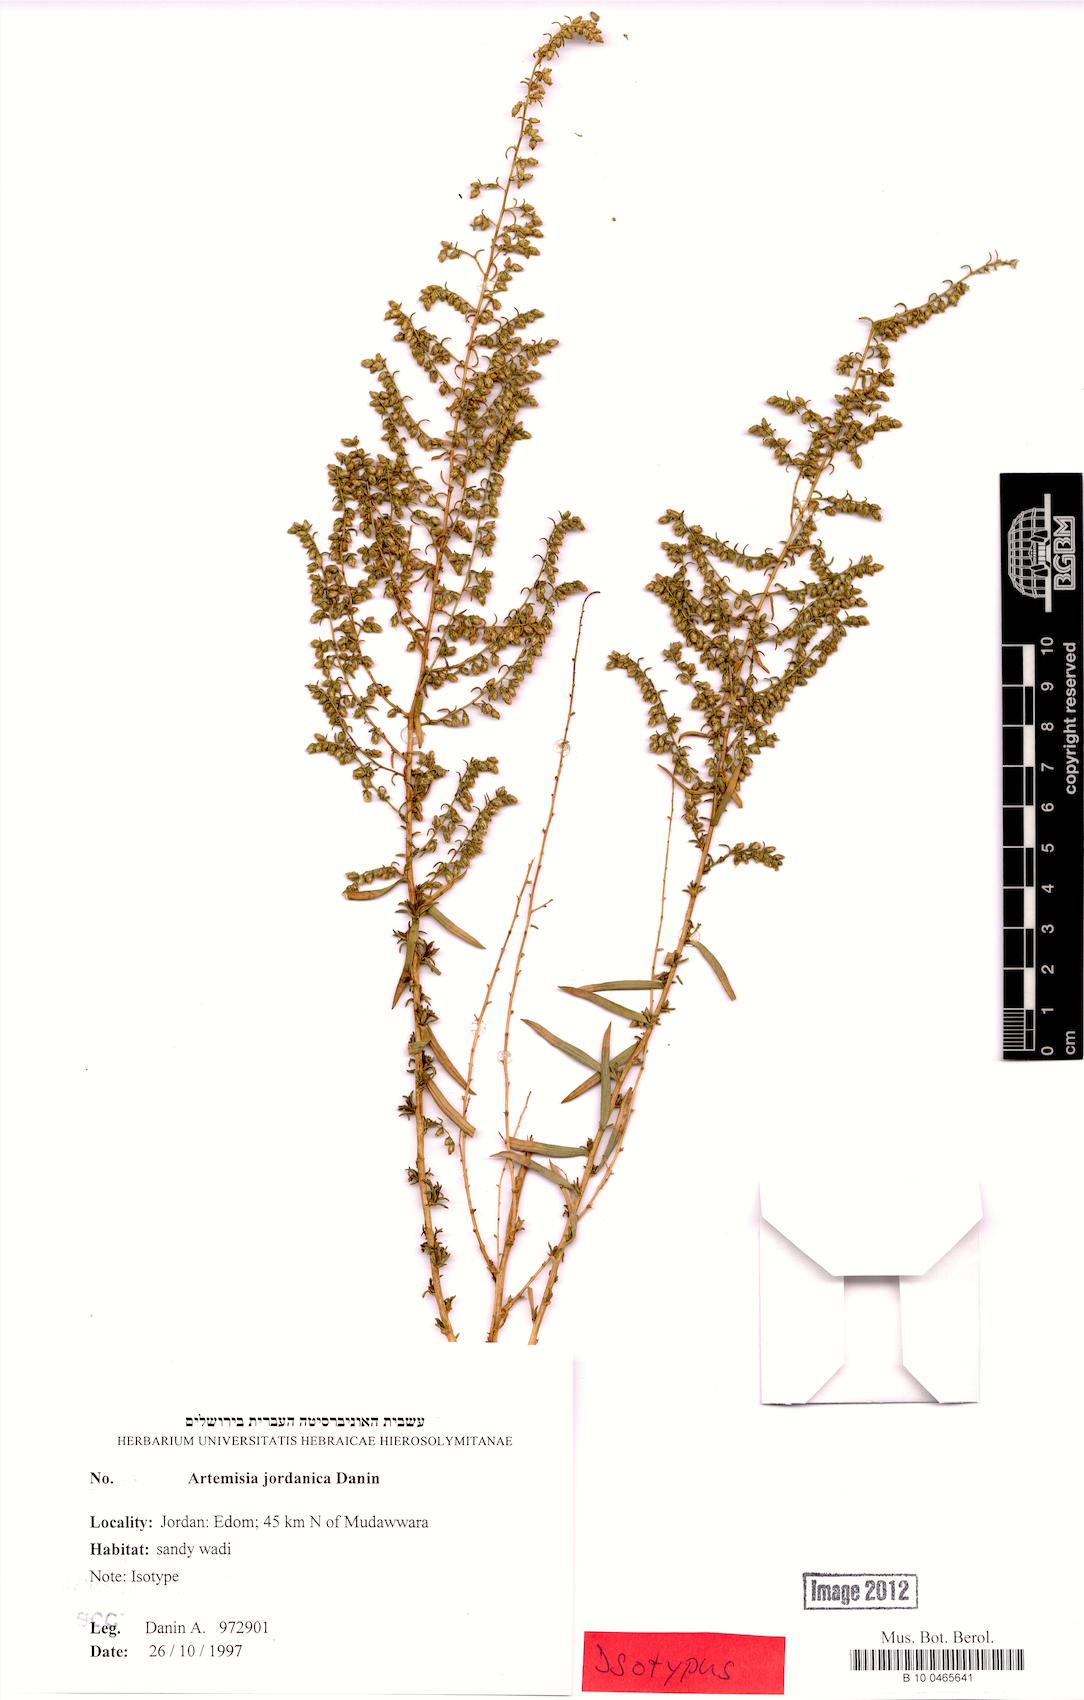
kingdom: Plantae
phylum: Tracheophyta
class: Magnoliopsida
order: Asterales
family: Asteraceae
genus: Artemisia
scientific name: Artemisia jordanica
